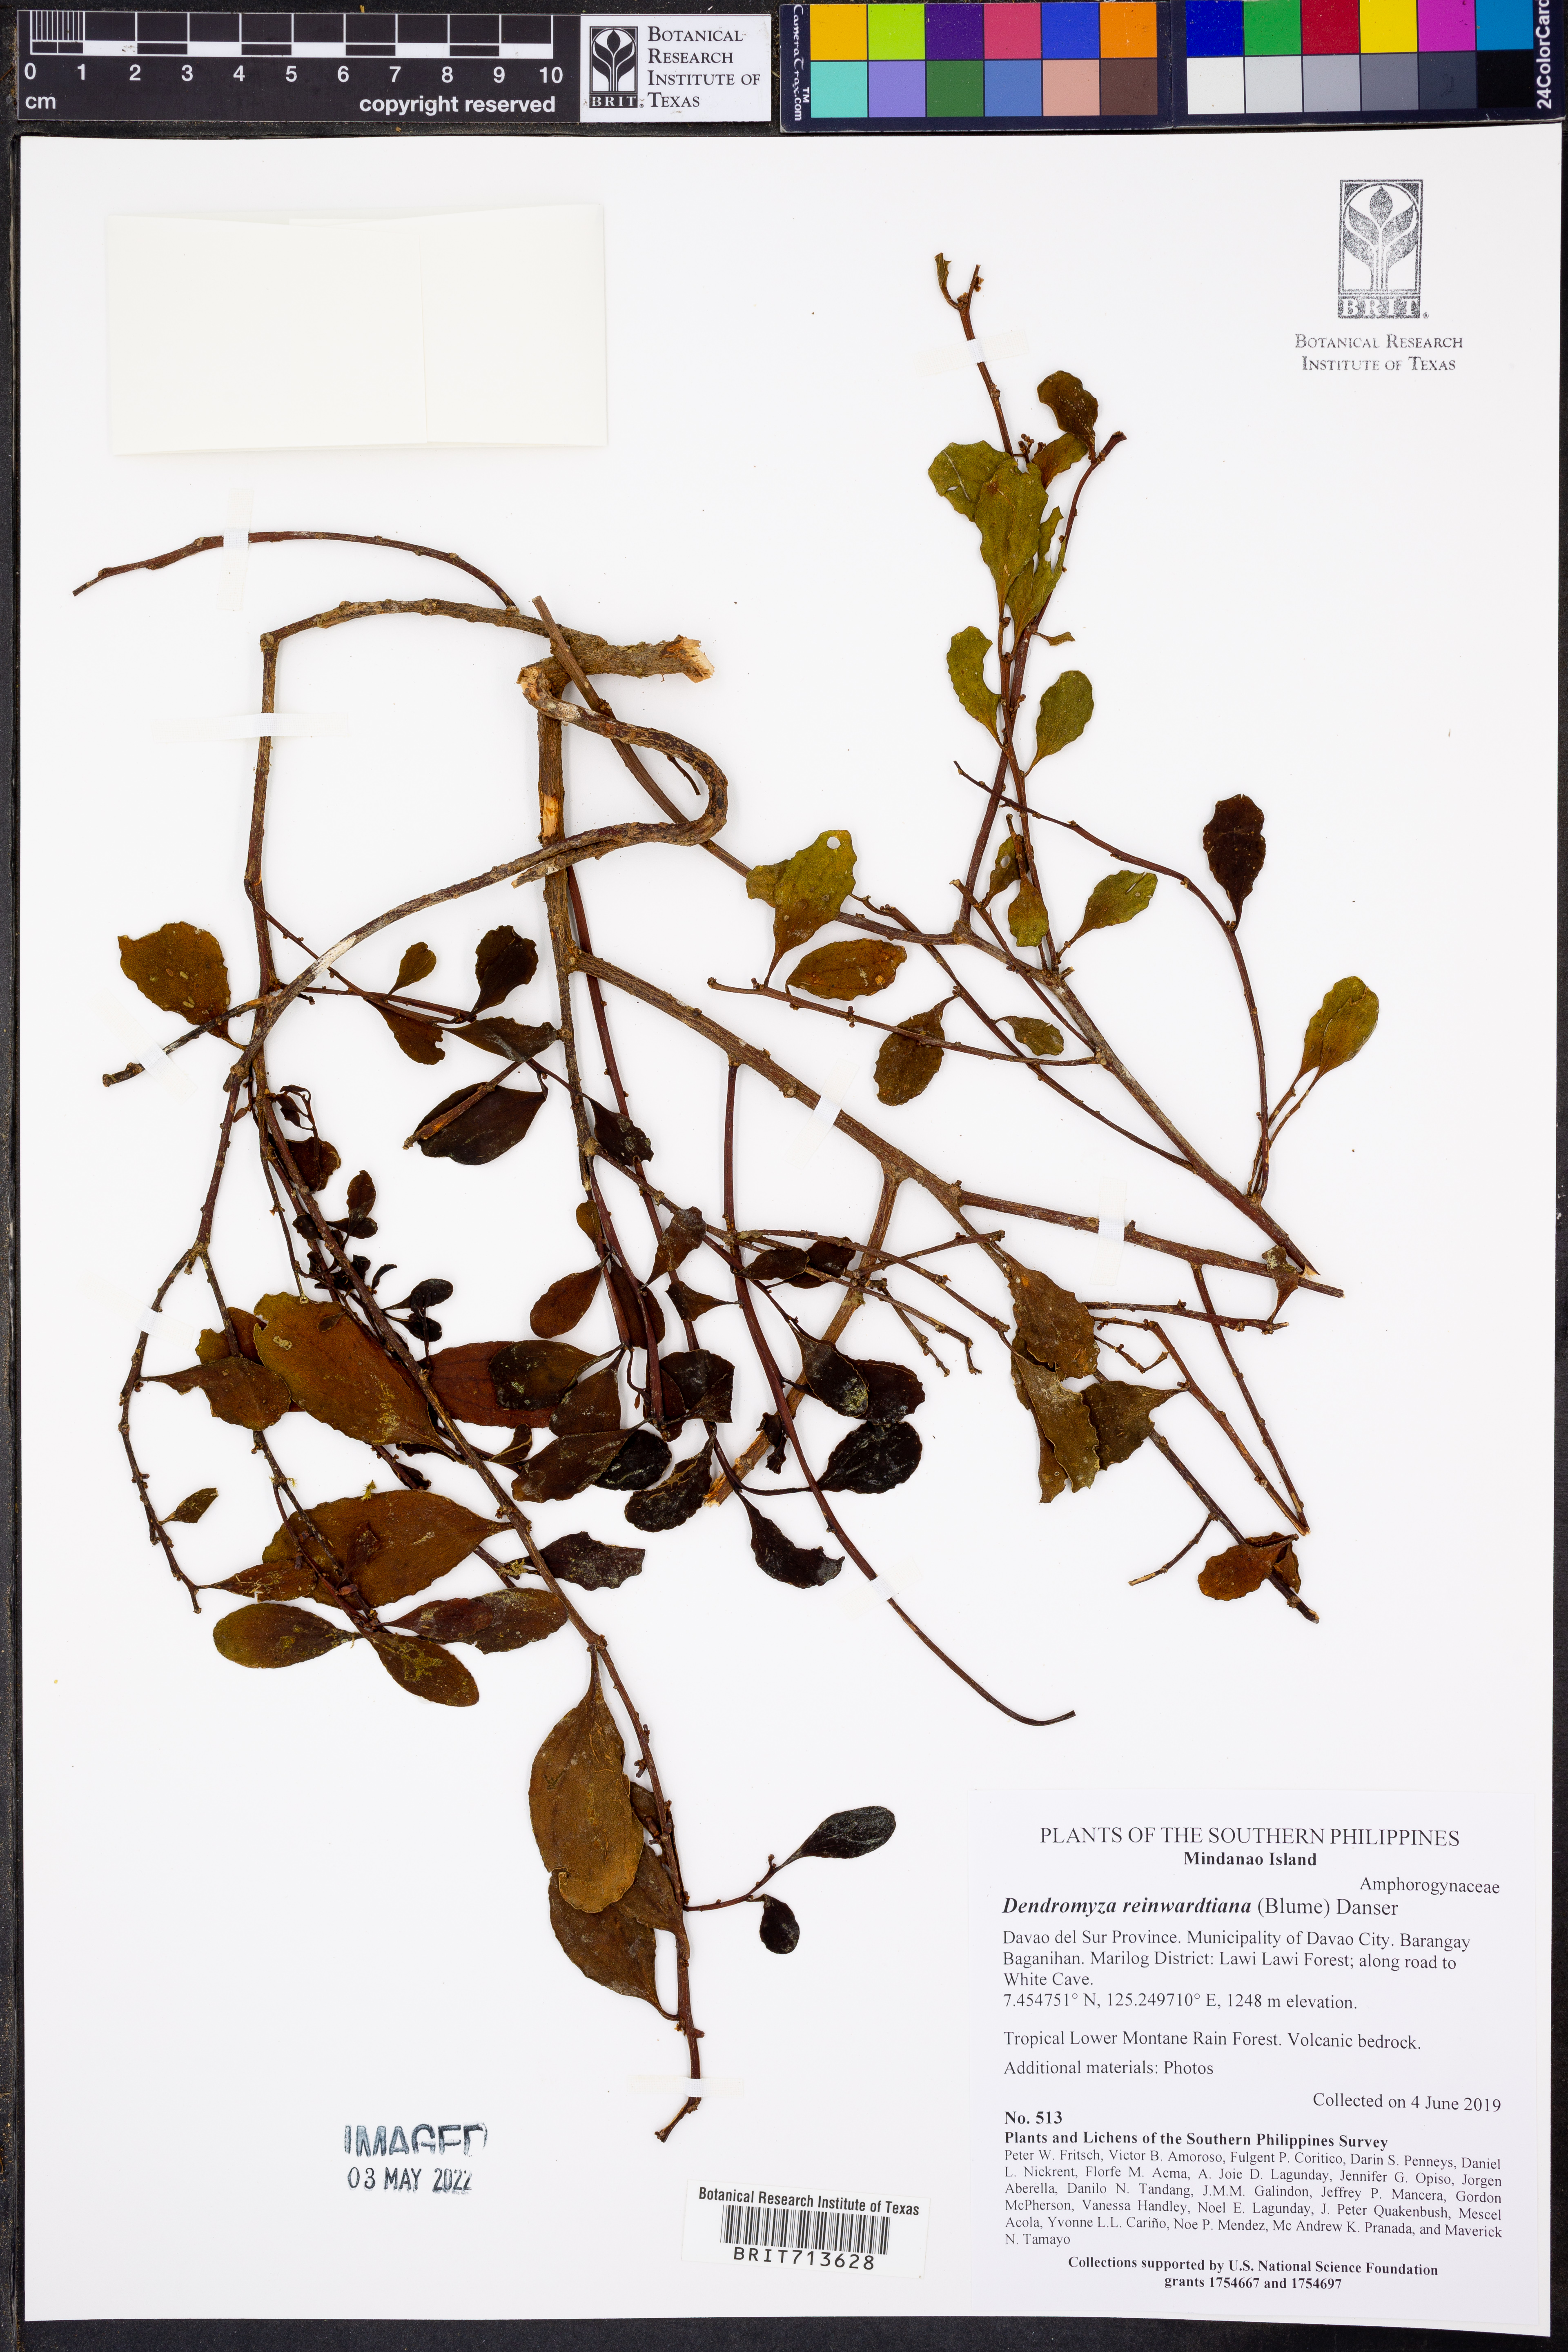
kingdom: Plantae
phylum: Tracheophyta
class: Magnoliopsida
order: Santalales
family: Amphorogynaceae
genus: Dendromyza
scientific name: Dendromyza
